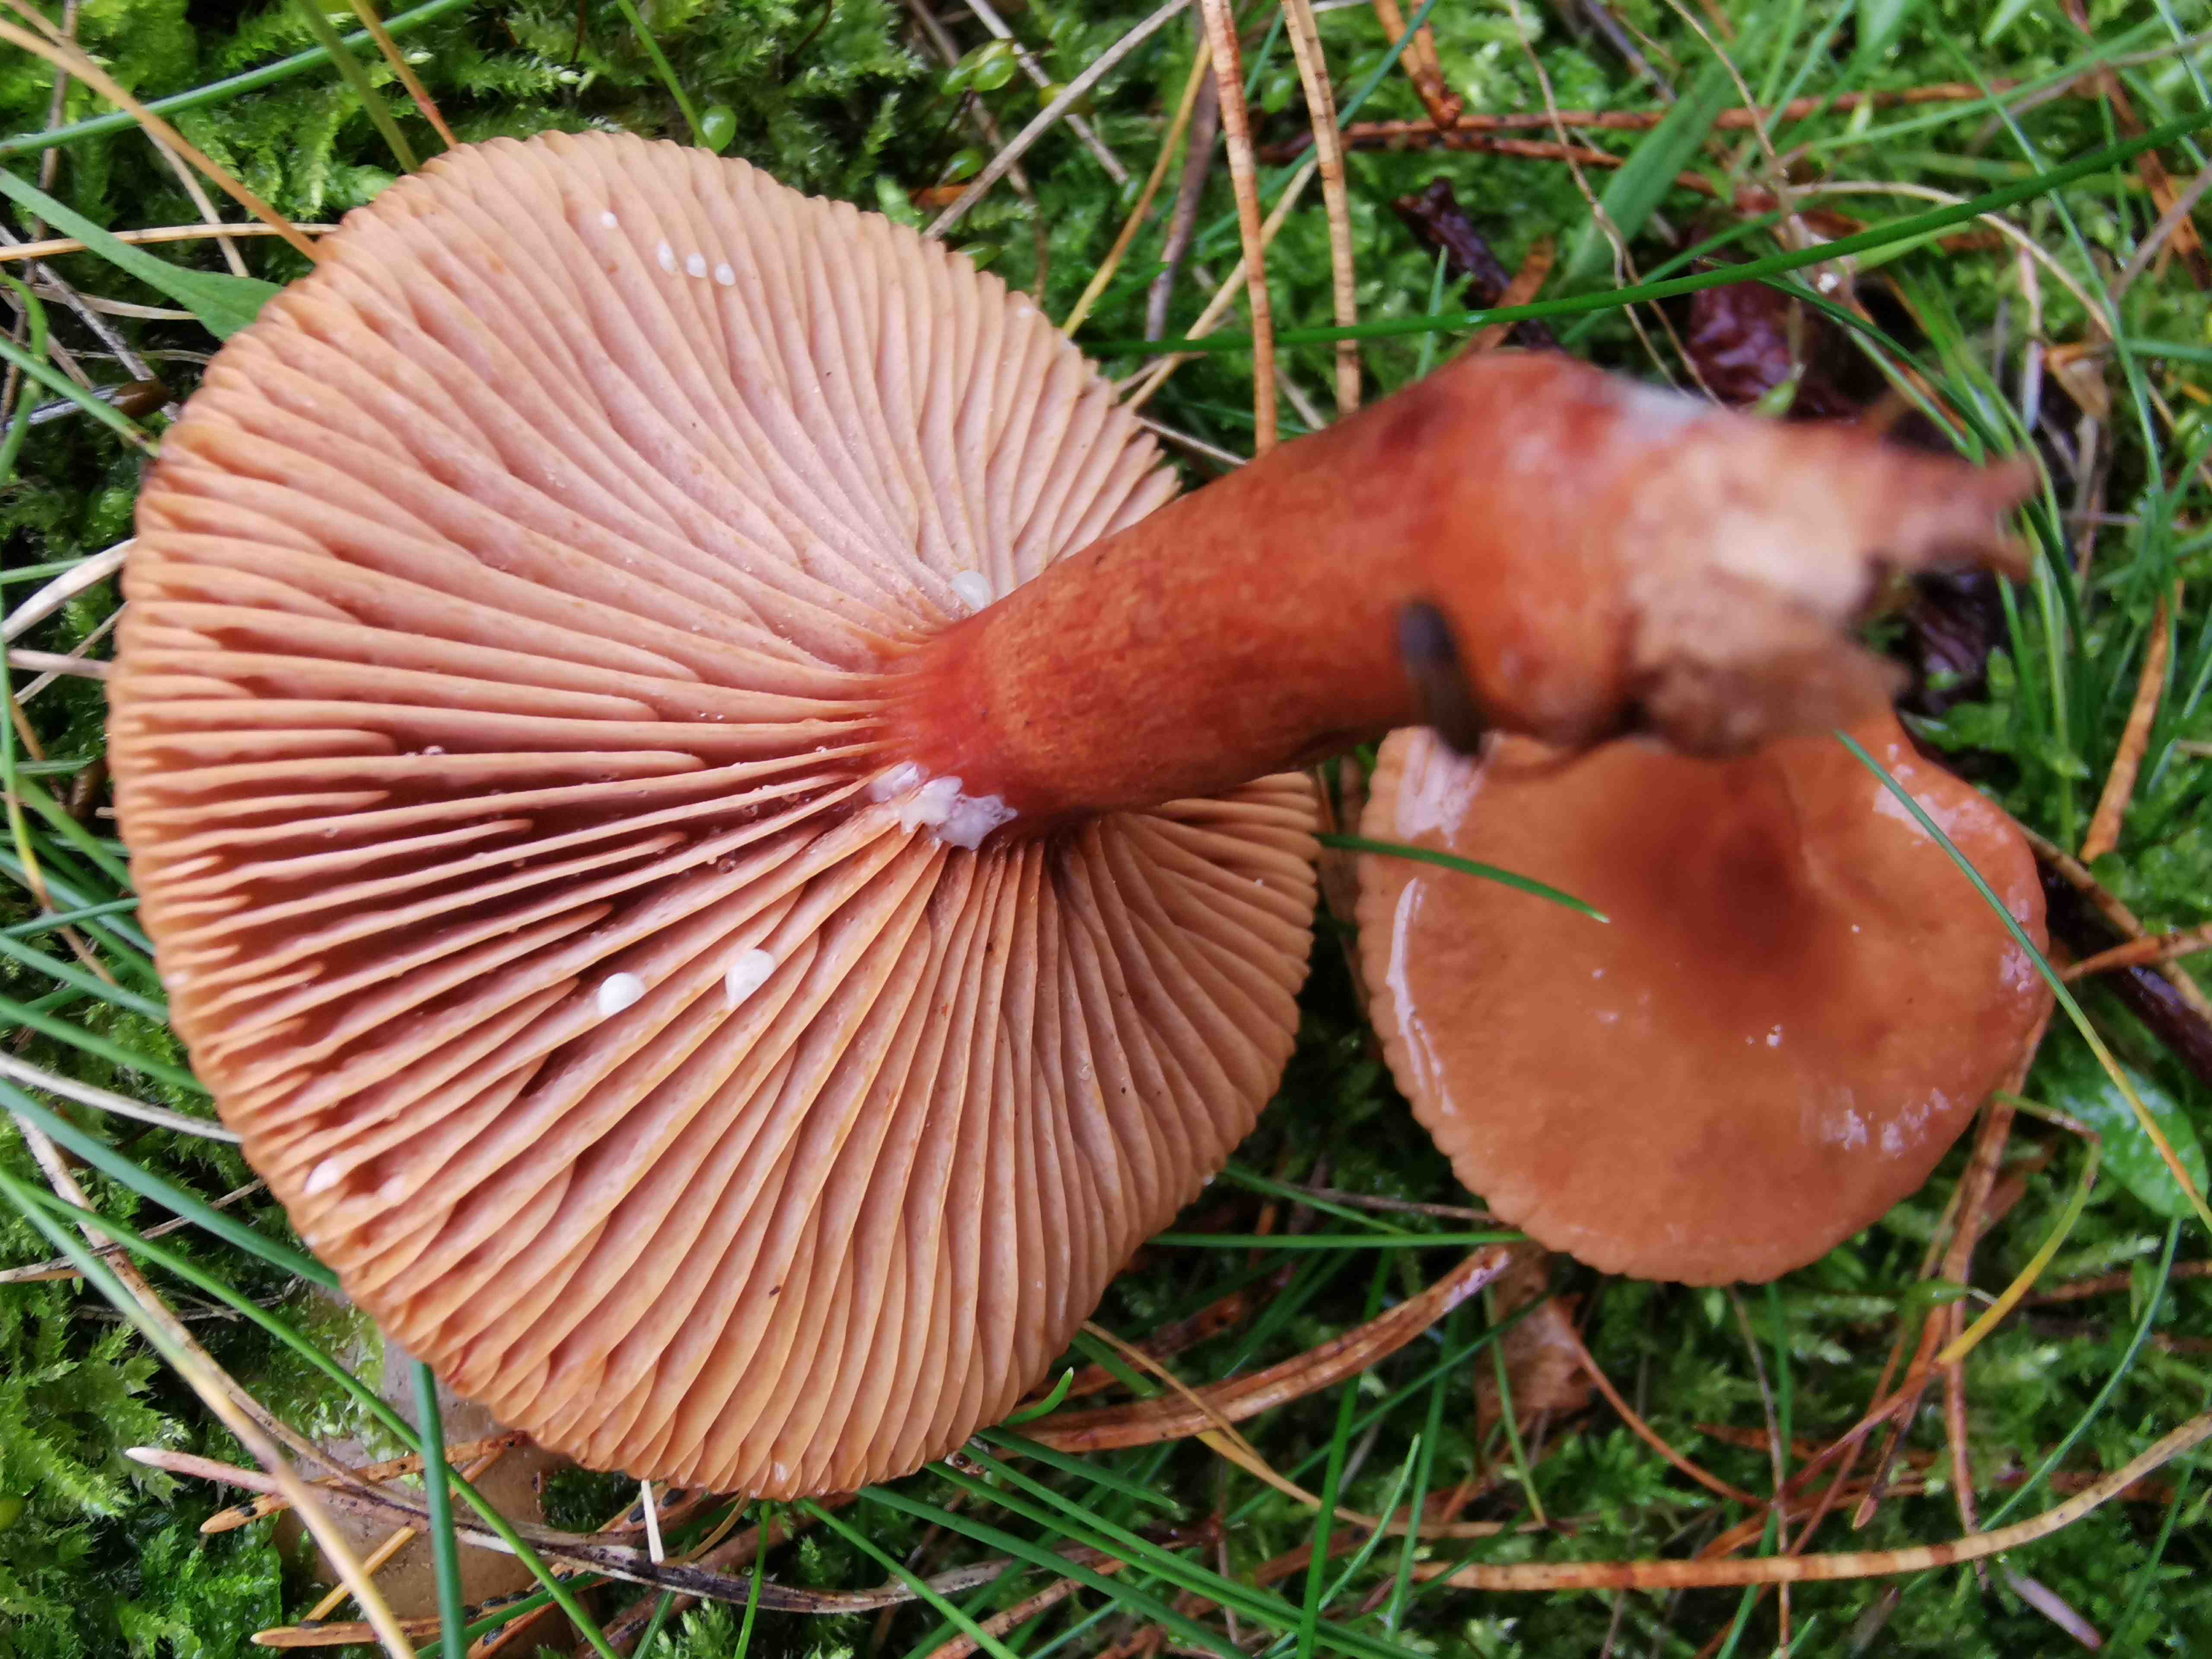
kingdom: Fungi
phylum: Basidiomycota
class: Agaricomycetes
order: Russulales
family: Russulaceae
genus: Lactarius
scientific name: Lactarius
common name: mælkehat
